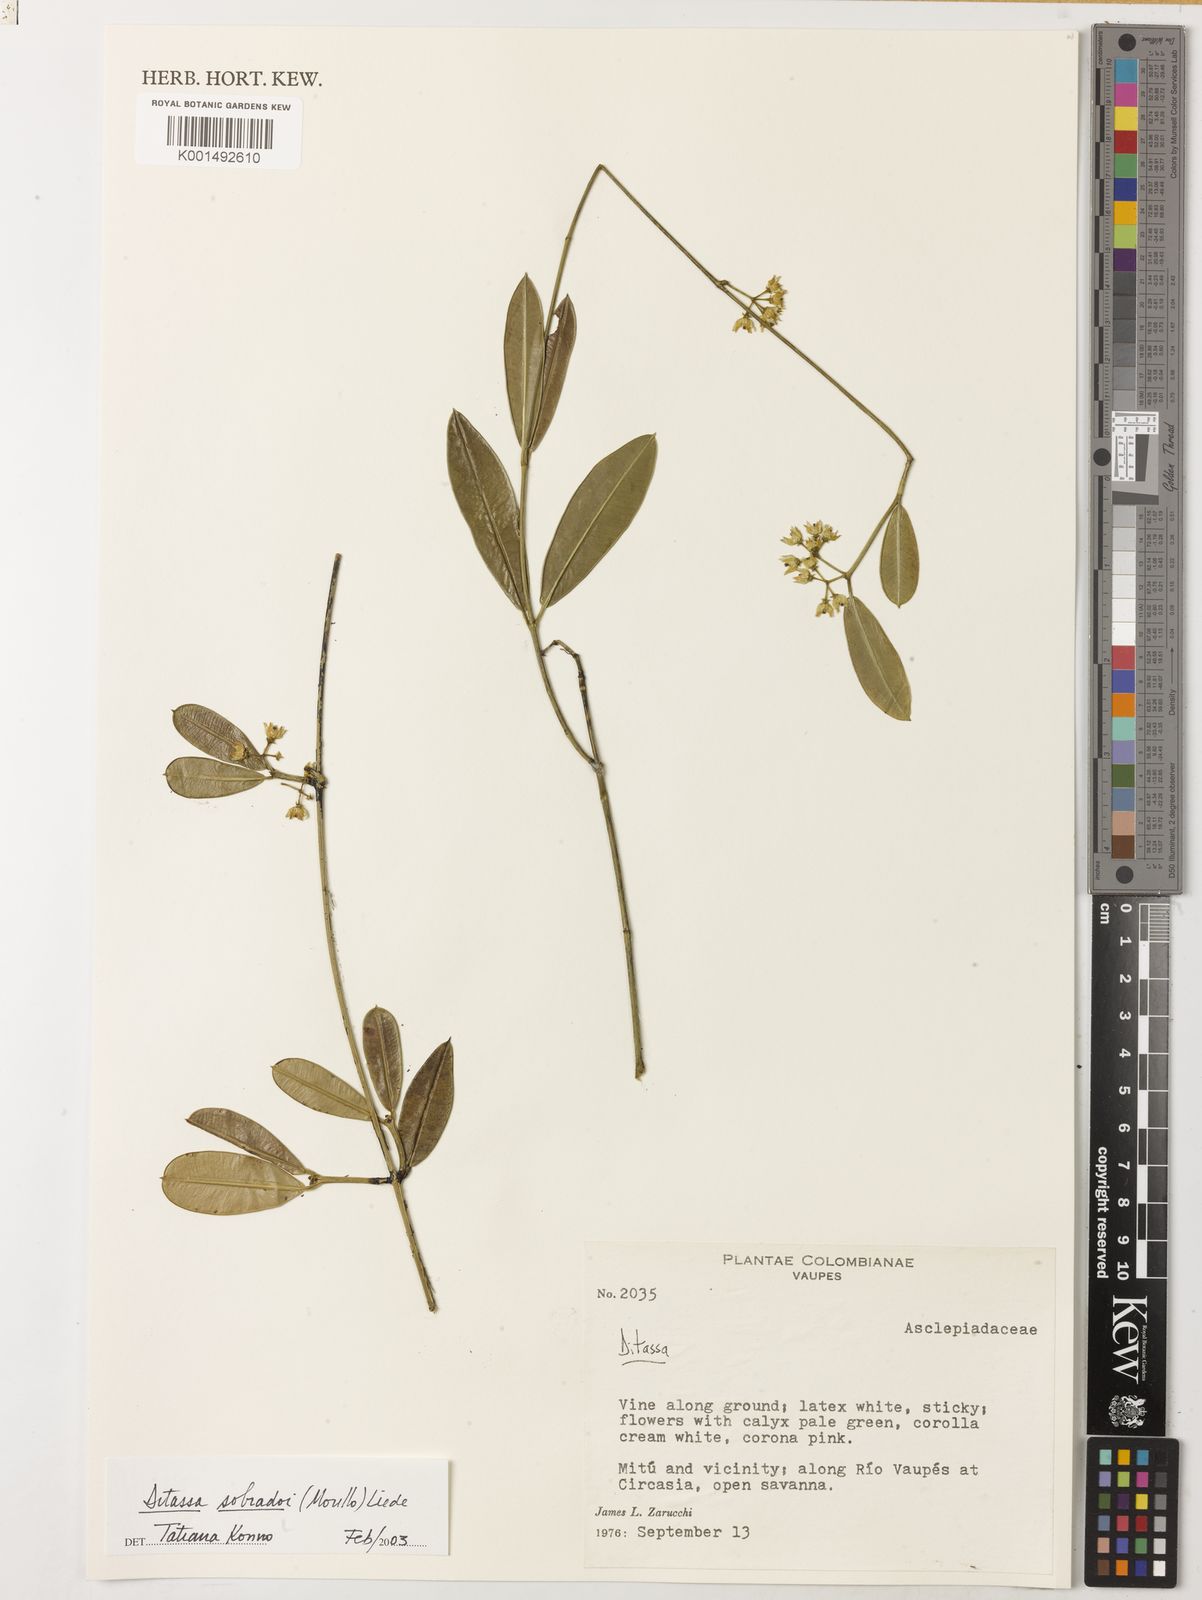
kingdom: Plantae
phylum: Tracheophyta
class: Magnoliopsida
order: Gentianales
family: Apocynaceae
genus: Ditassa
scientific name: Ditassa sobradoi
